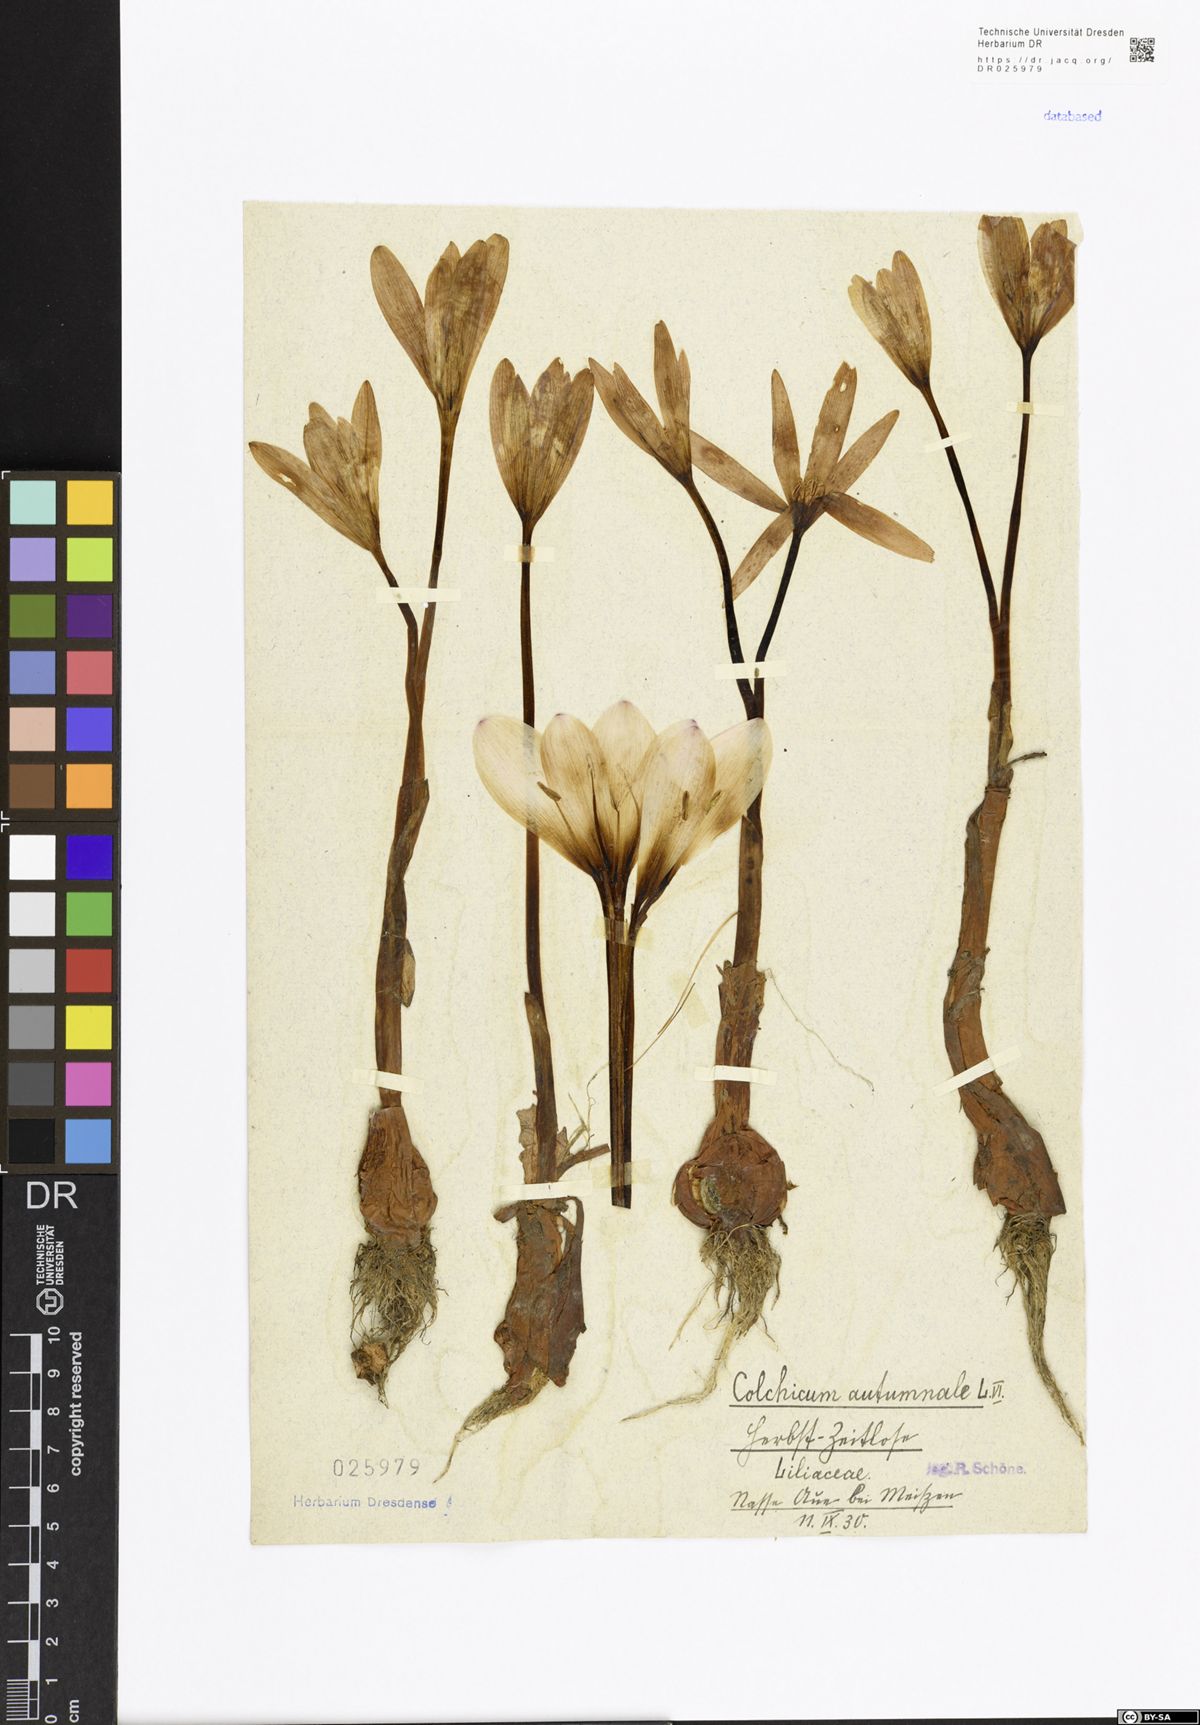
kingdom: Plantae
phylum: Tracheophyta
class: Liliopsida
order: Liliales
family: Colchicaceae
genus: Colchicum
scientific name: Colchicum autumnale
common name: Autumn crocus
